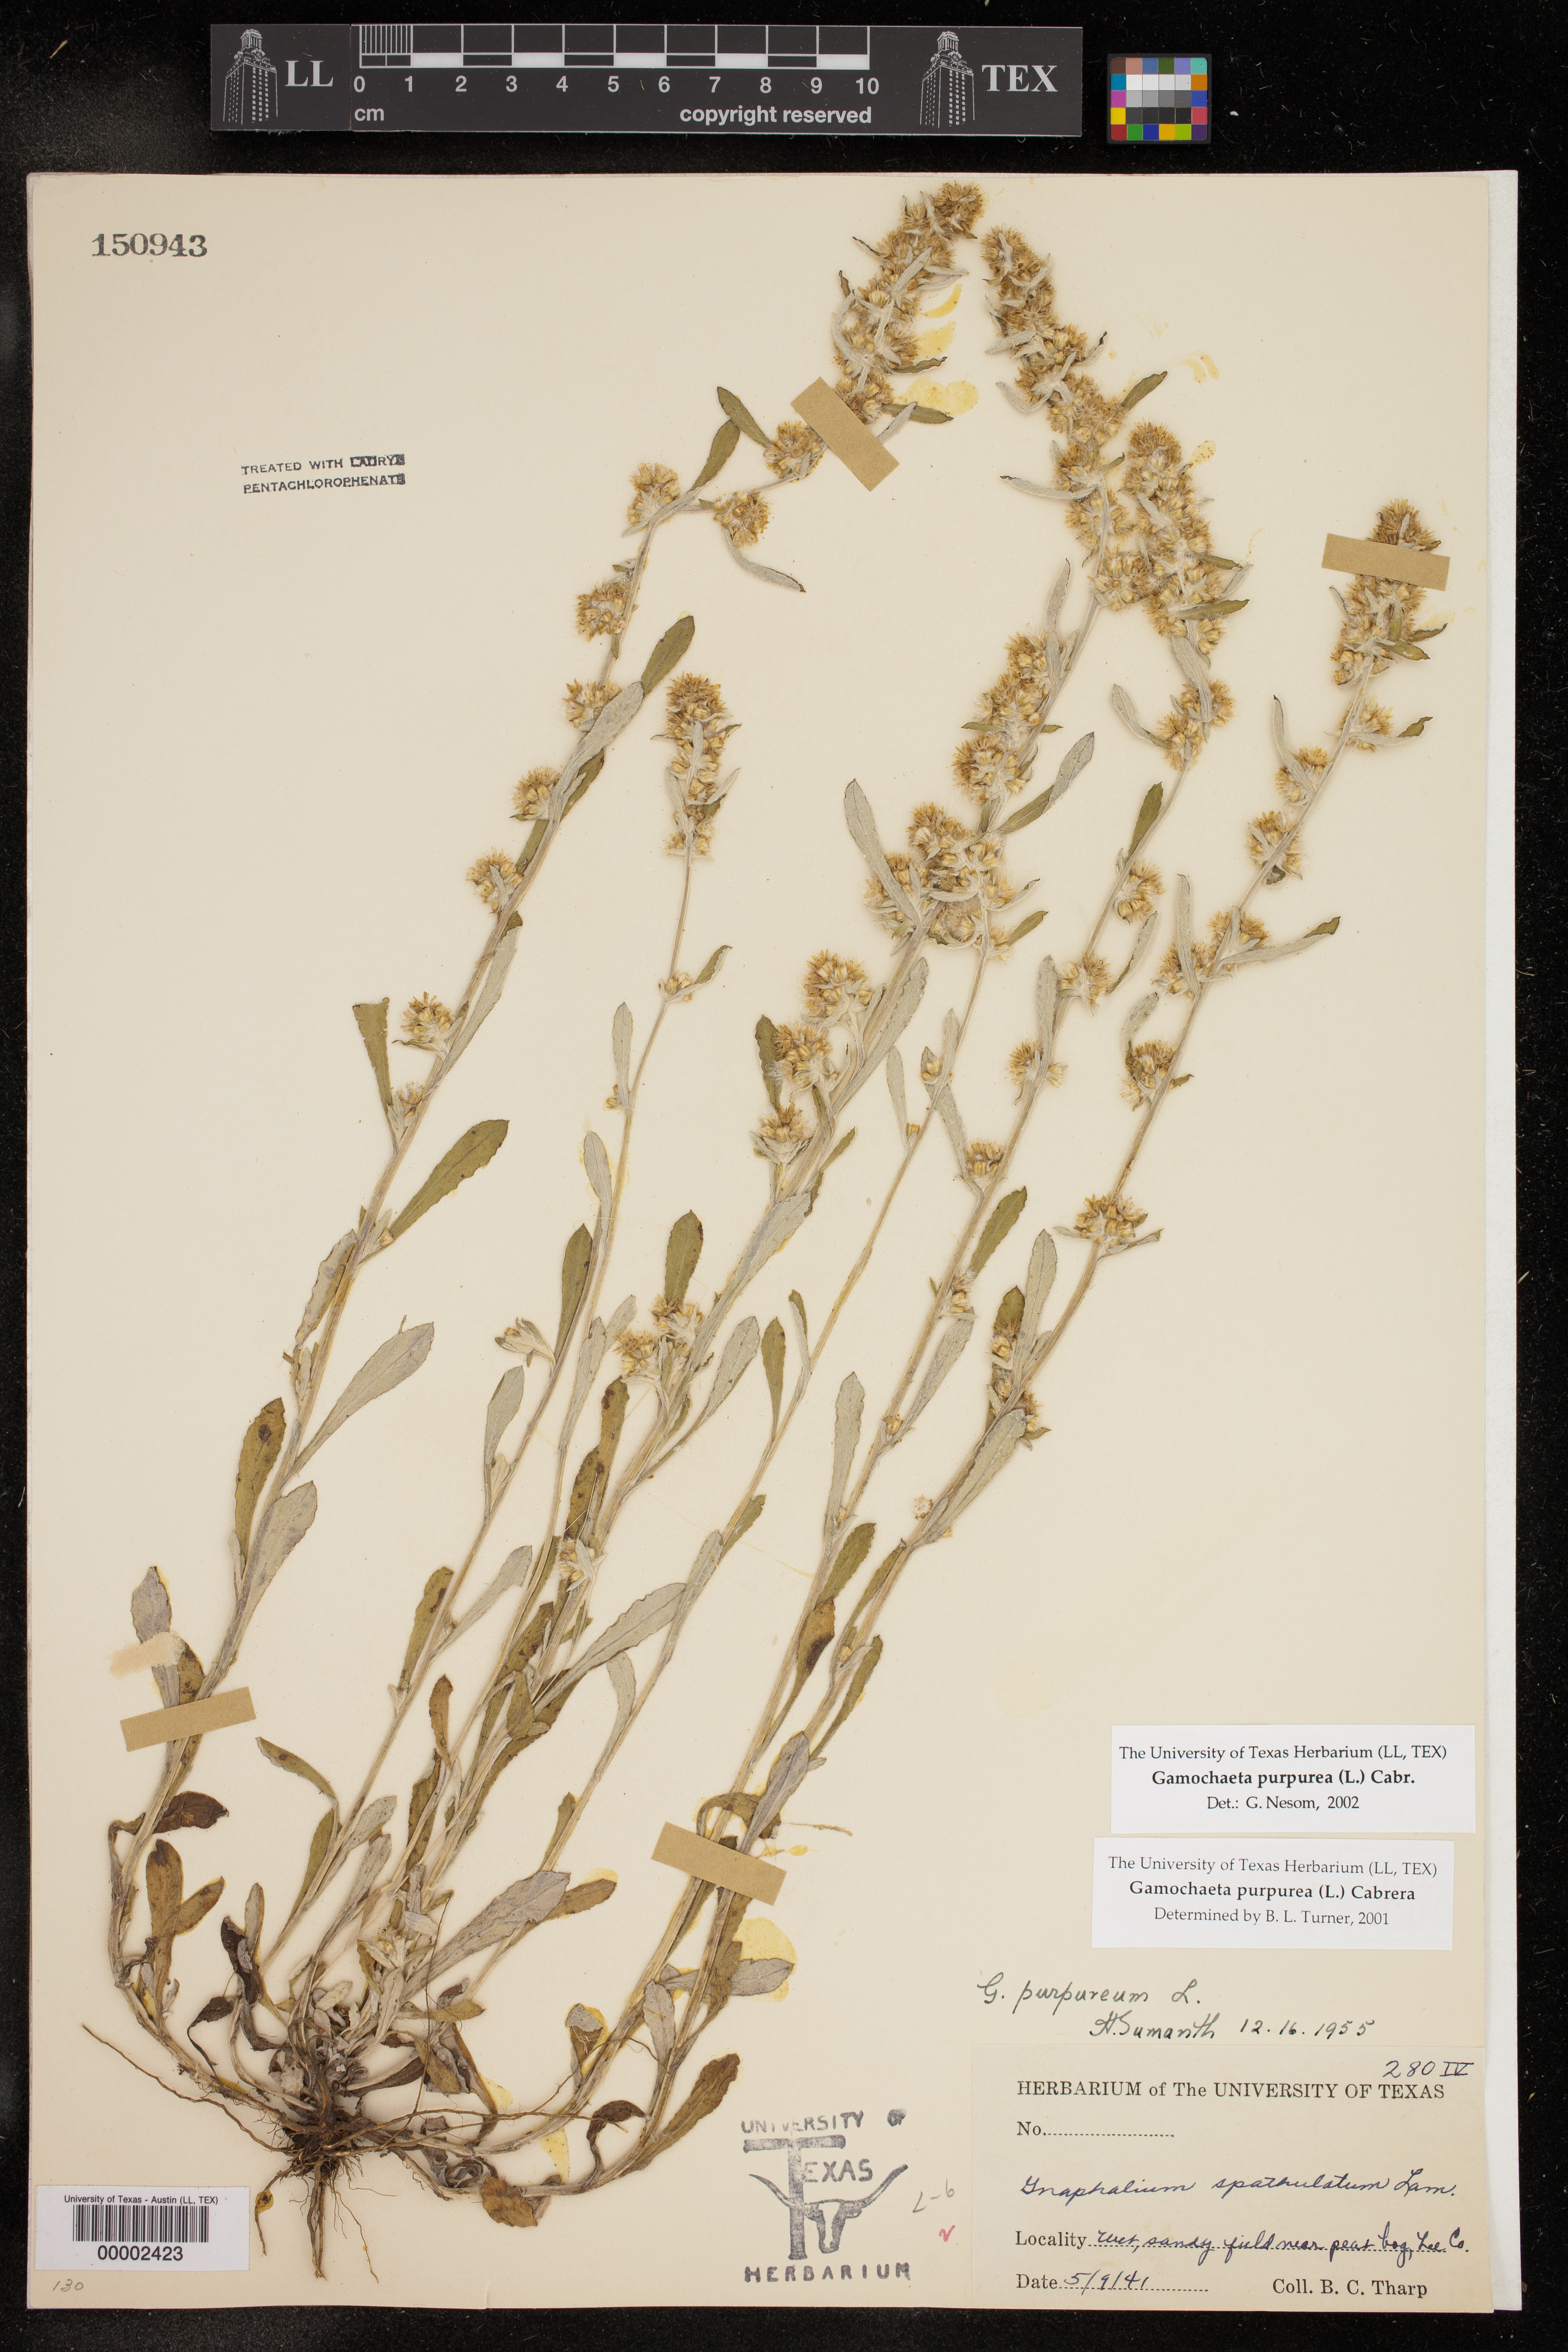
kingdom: Plantae
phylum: Tracheophyta
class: Magnoliopsida
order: Asterales
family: Asteraceae
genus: Gamochaeta
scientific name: Gamochaeta purpurea
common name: Purple cudweed
